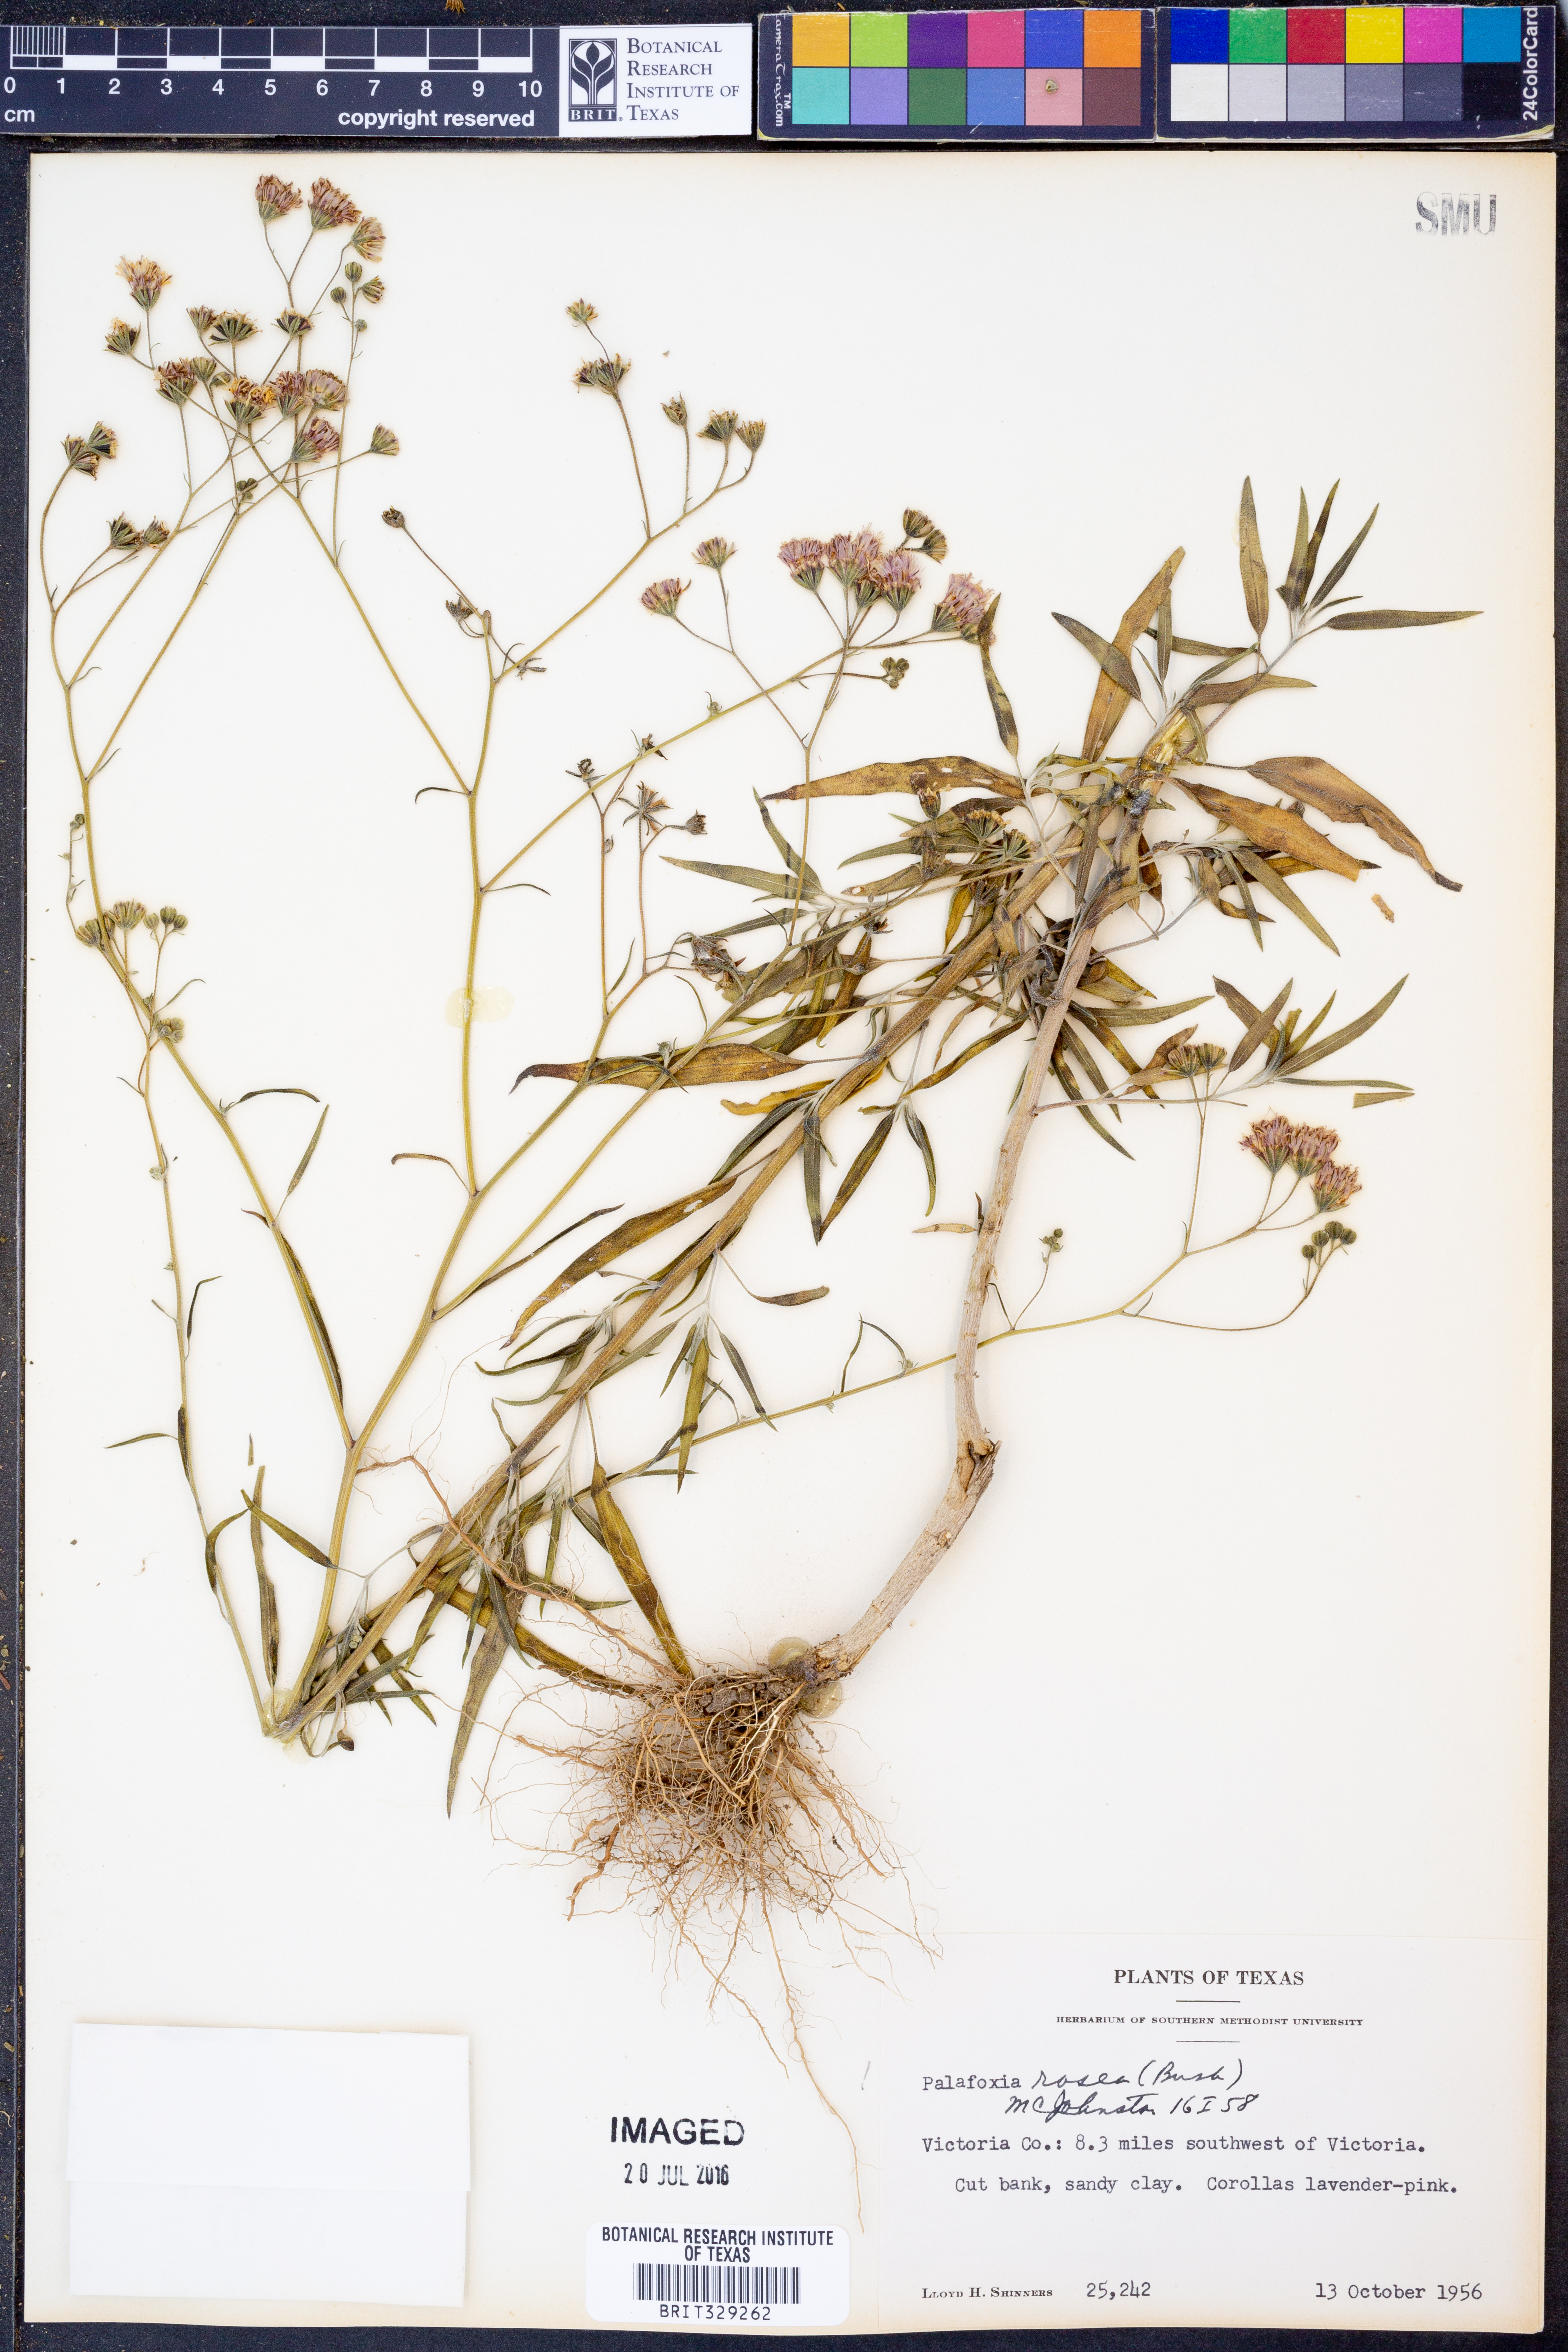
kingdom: Plantae
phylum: Tracheophyta
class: Magnoliopsida
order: Asterales
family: Asteraceae
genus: Palafoxia
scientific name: Palafoxia rosea
